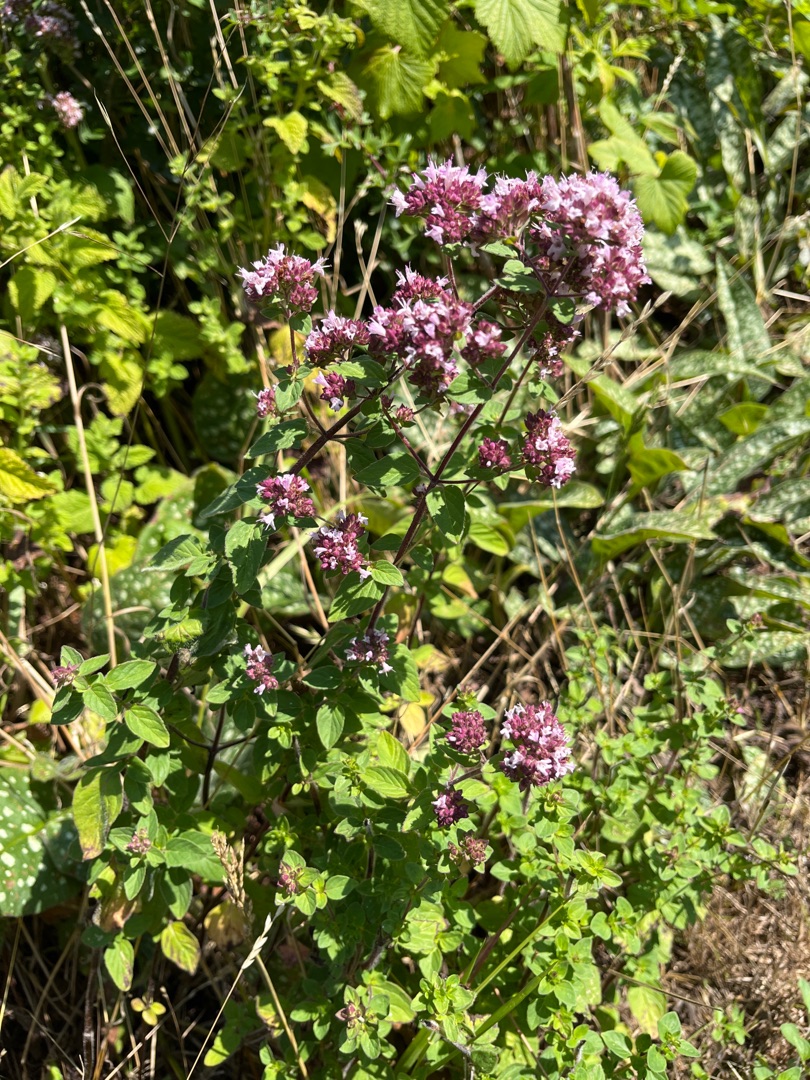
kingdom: Plantae
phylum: Tracheophyta
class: Magnoliopsida
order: Lamiales
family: Lamiaceae
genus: Origanum
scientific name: Origanum vulgare
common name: Merian
